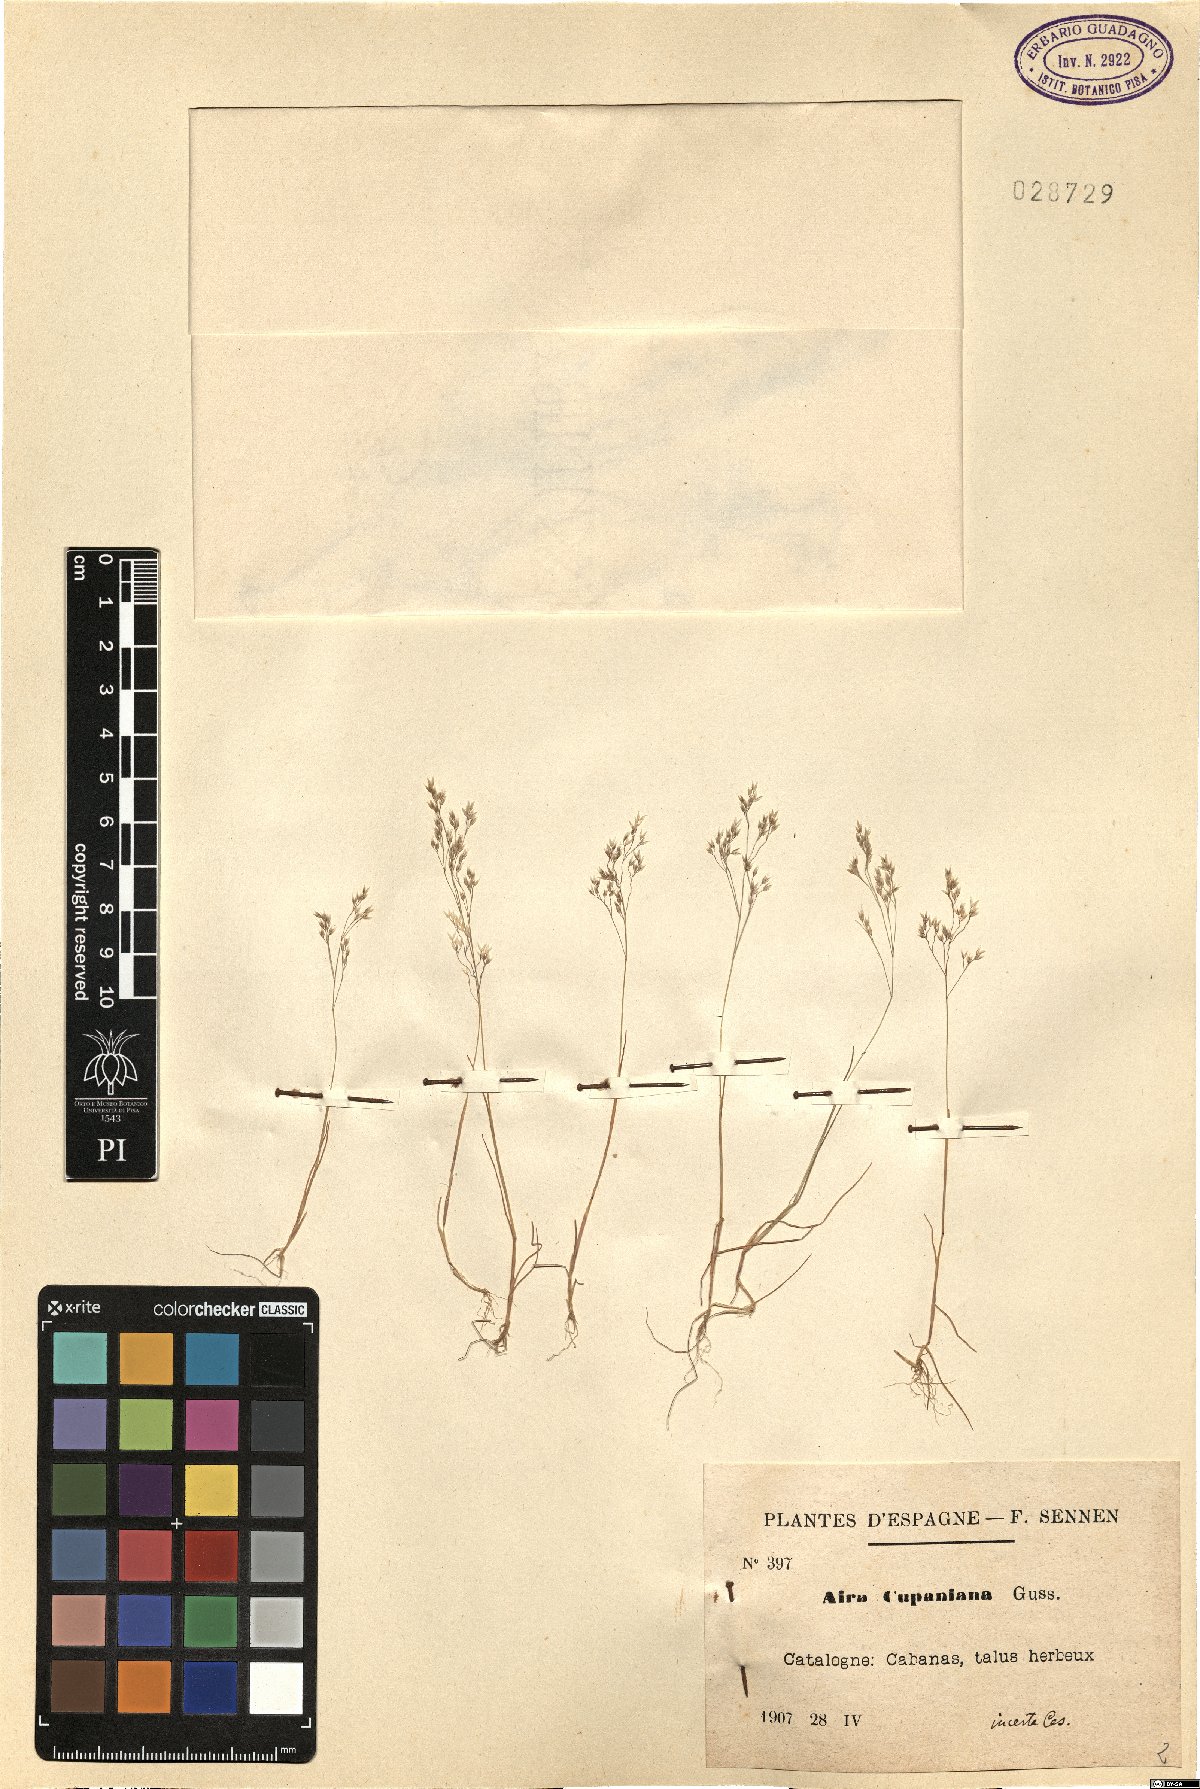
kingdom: Plantae
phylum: Tracheophyta
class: Liliopsida
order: Poales
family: Poaceae
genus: Aira
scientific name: Aira cupaniana
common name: Silver hairgrass
